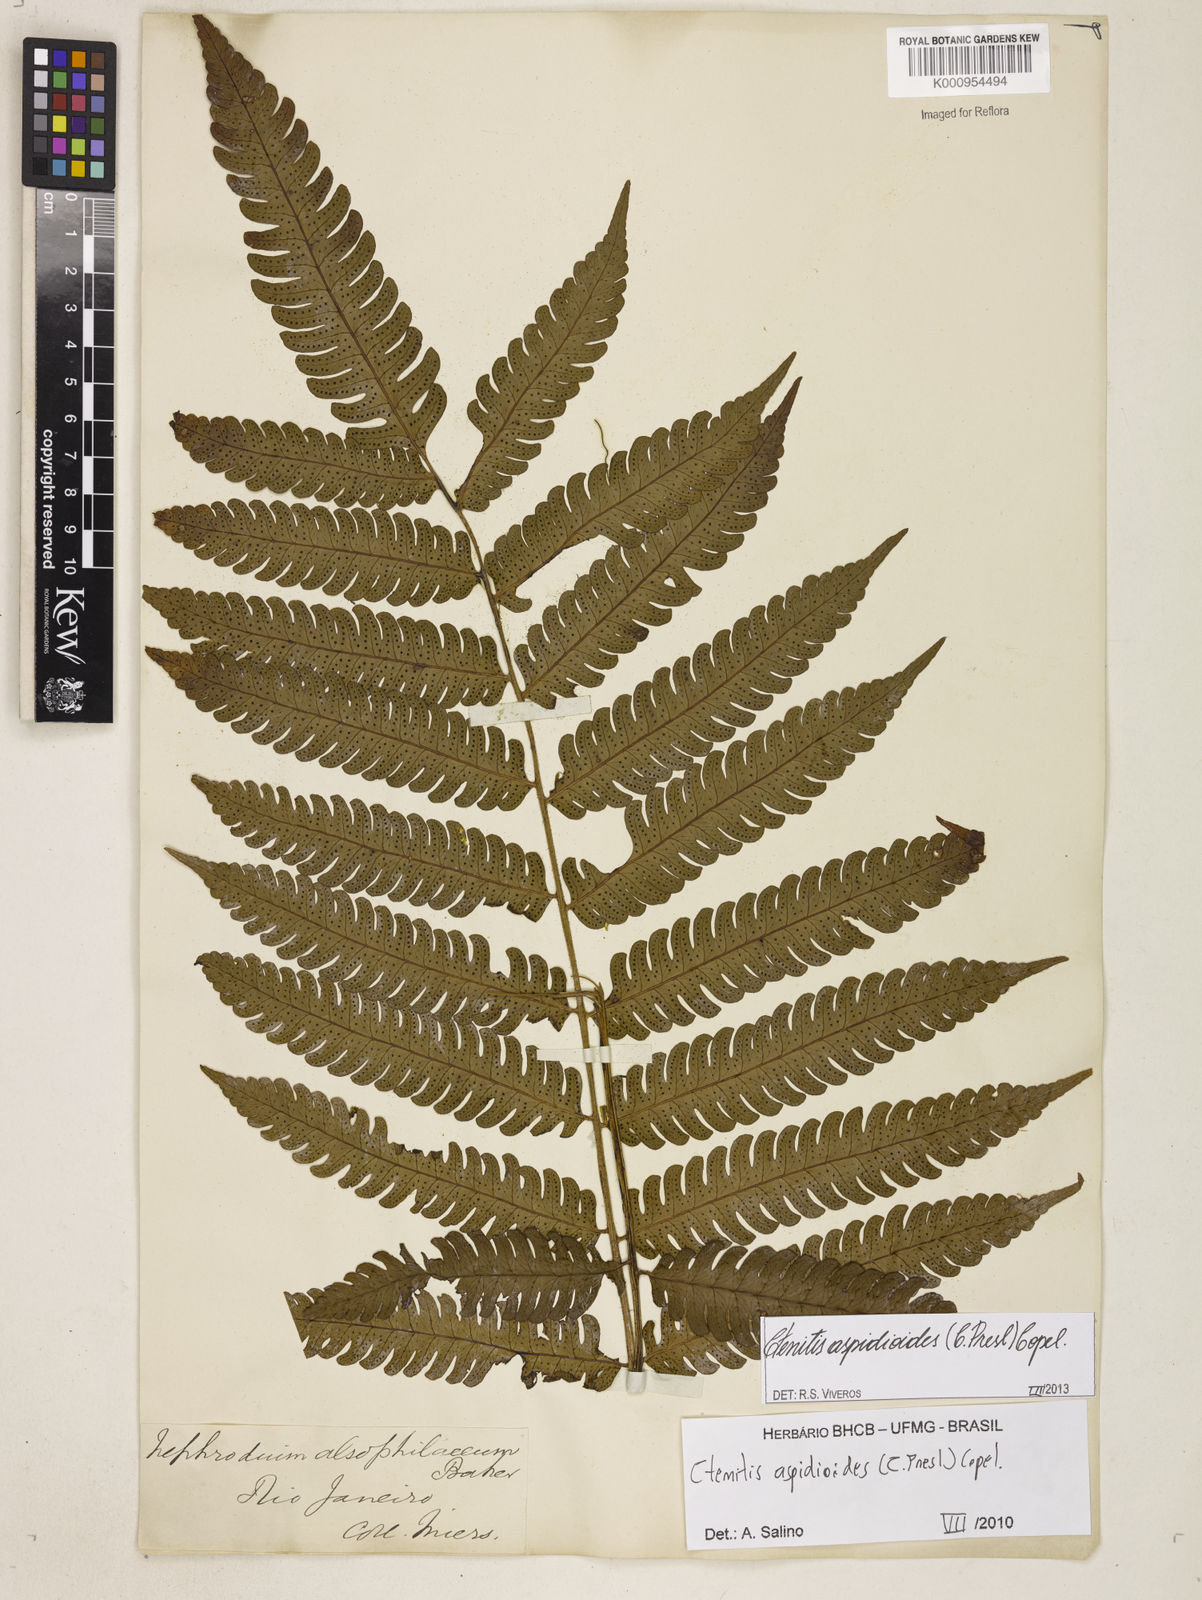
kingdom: Plantae
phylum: Tracheophyta
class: Polypodiopsida
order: Polypodiales
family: Dryopteridaceae
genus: Ctenitis
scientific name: Ctenitis aspidioides
